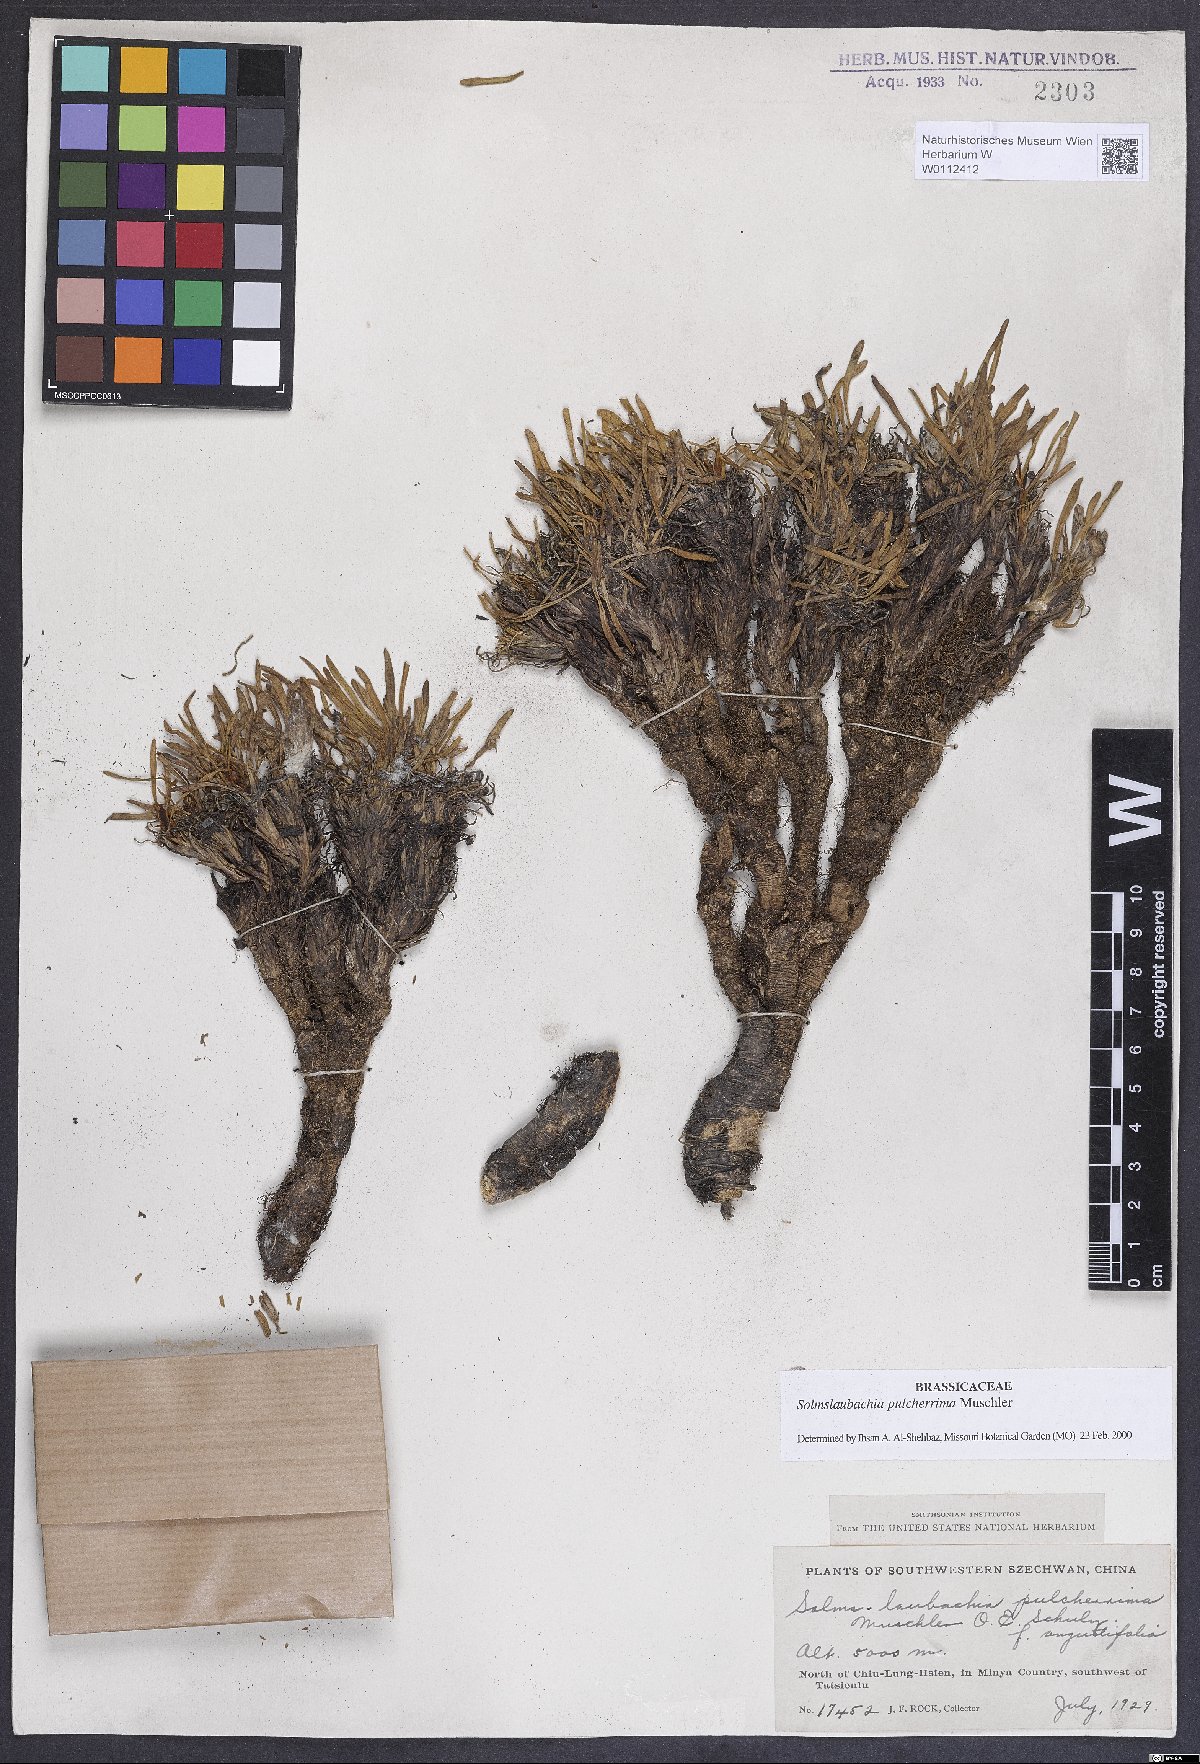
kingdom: Plantae
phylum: Tracheophyta
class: Magnoliopsida
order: Brassicales
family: Brassicaceae
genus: Solms-Laubachia
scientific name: Solms-Laubachia pulcherrima
